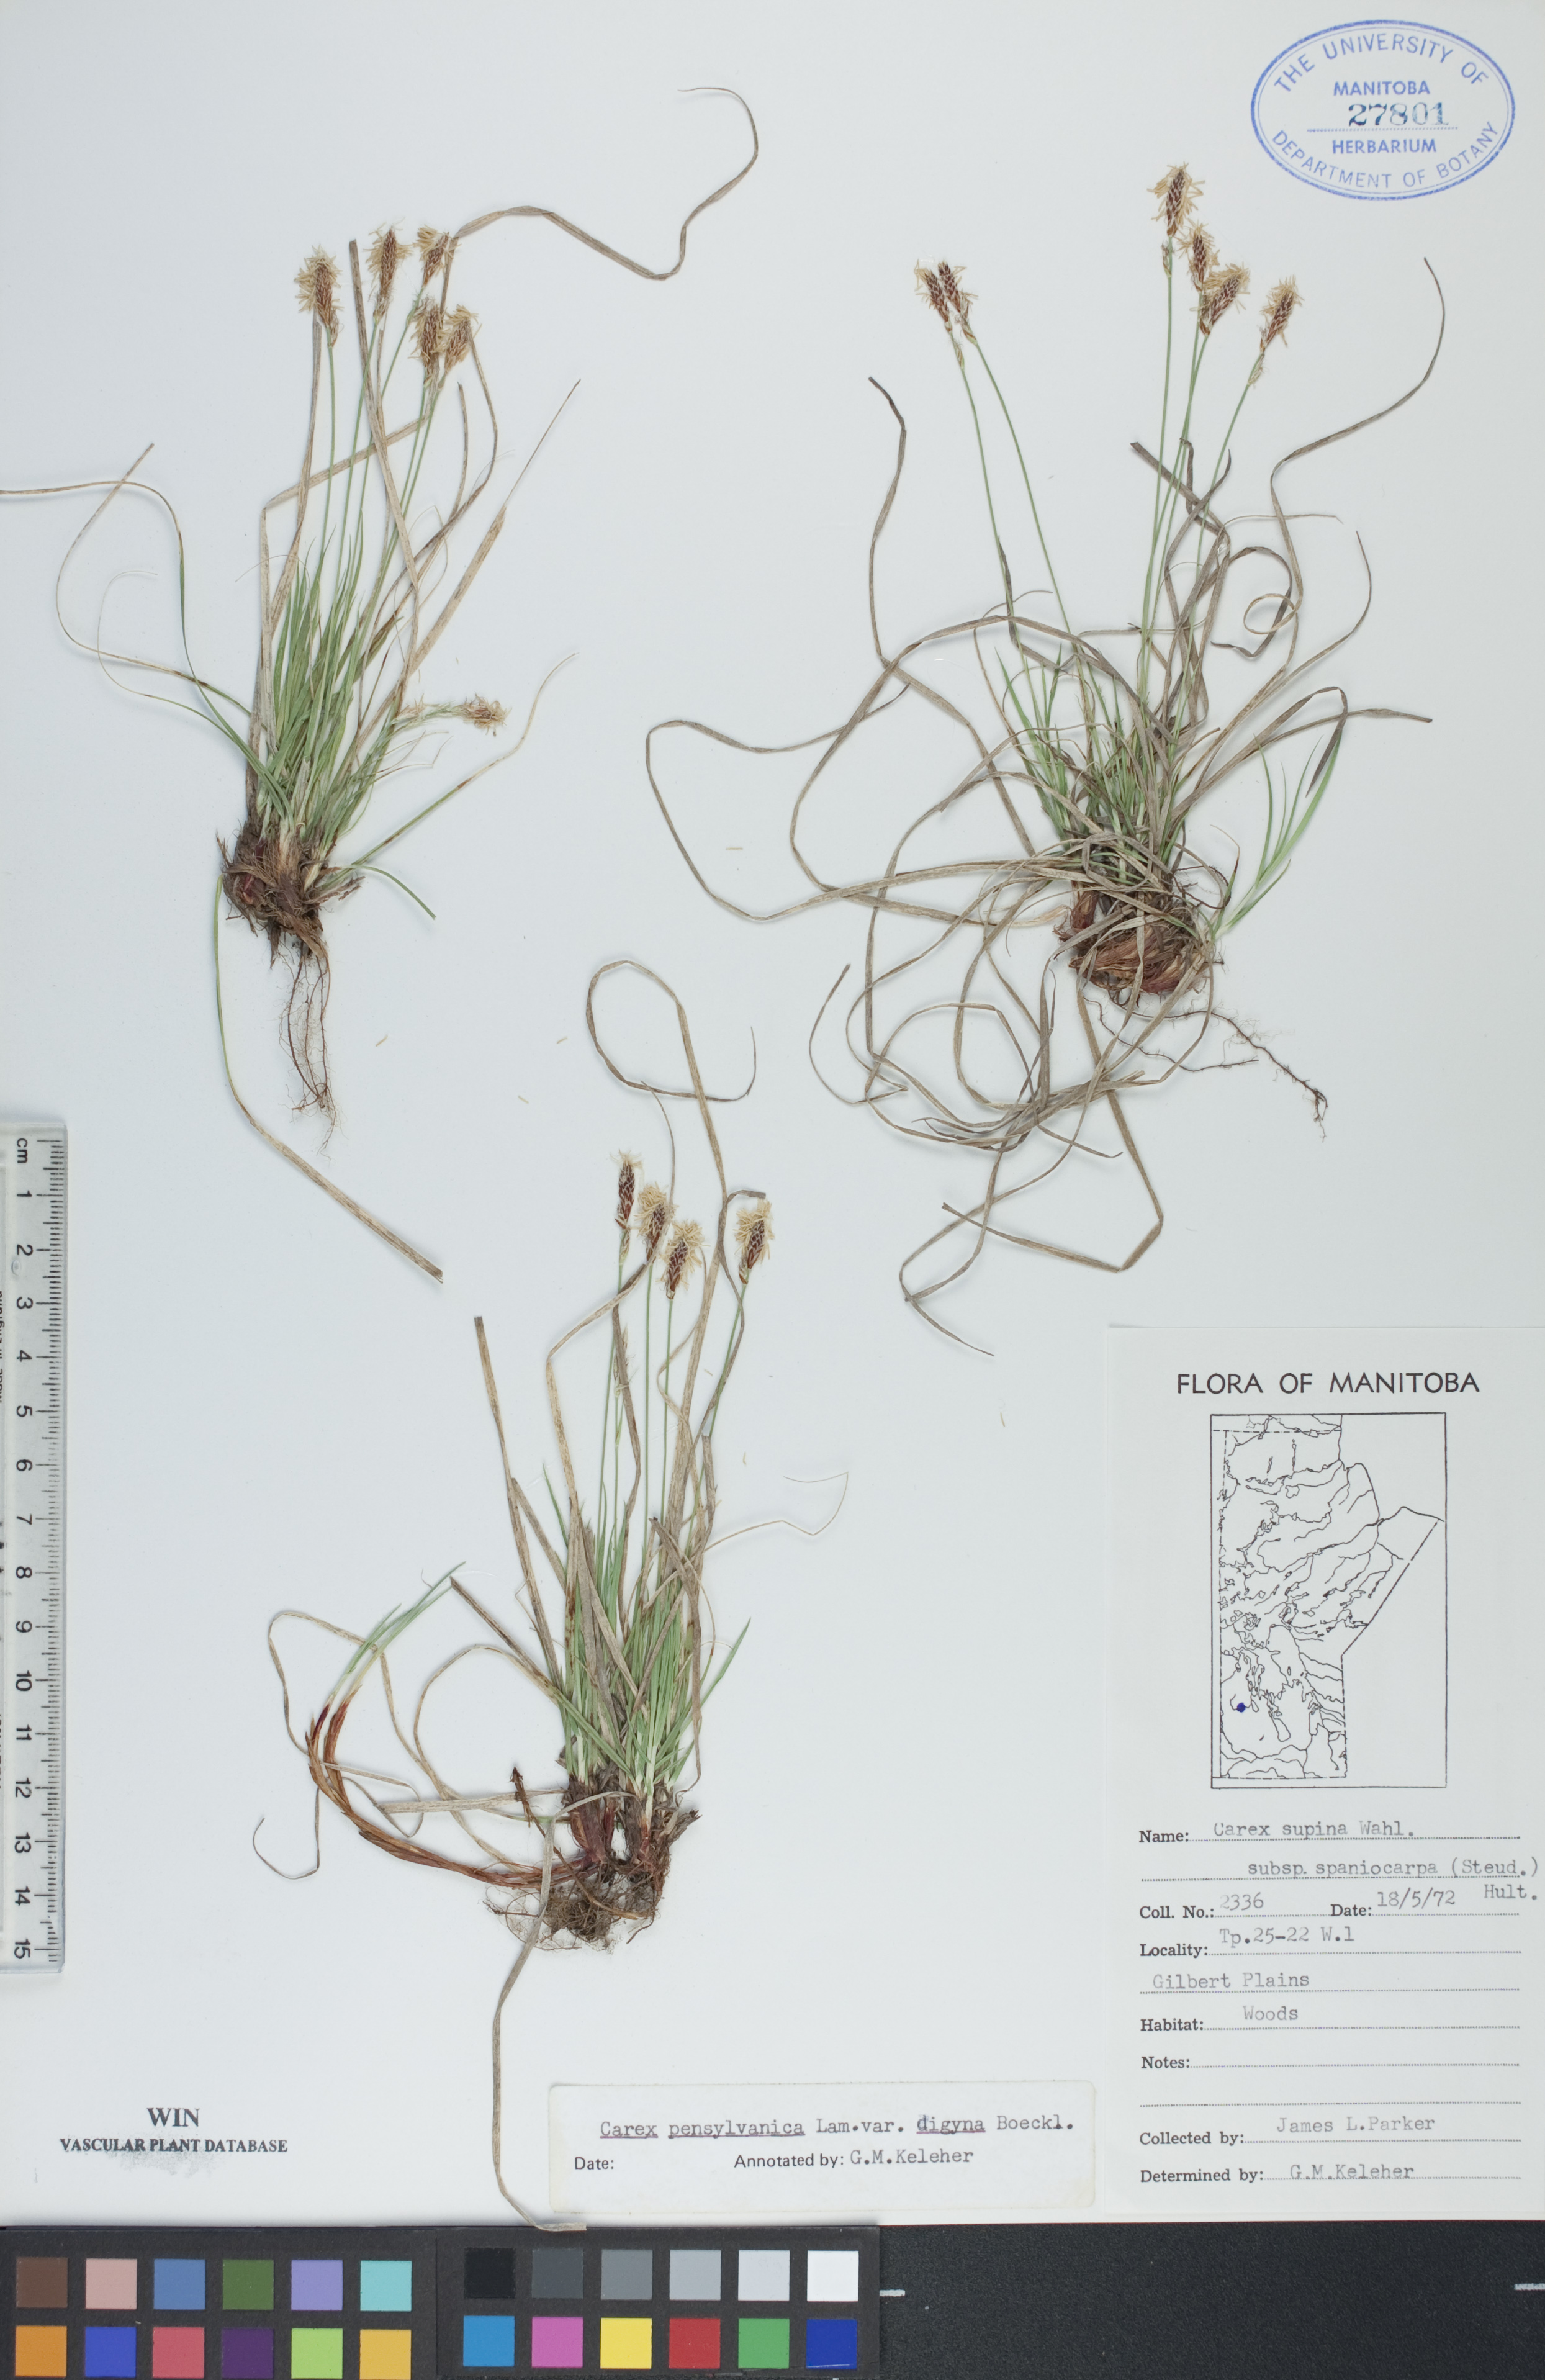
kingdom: Plantae
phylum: Tracheophyta
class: Liliopsida
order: Poales
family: Cyperaceae
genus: Carex
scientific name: Carex pensylvanica
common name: Common oak sedge
